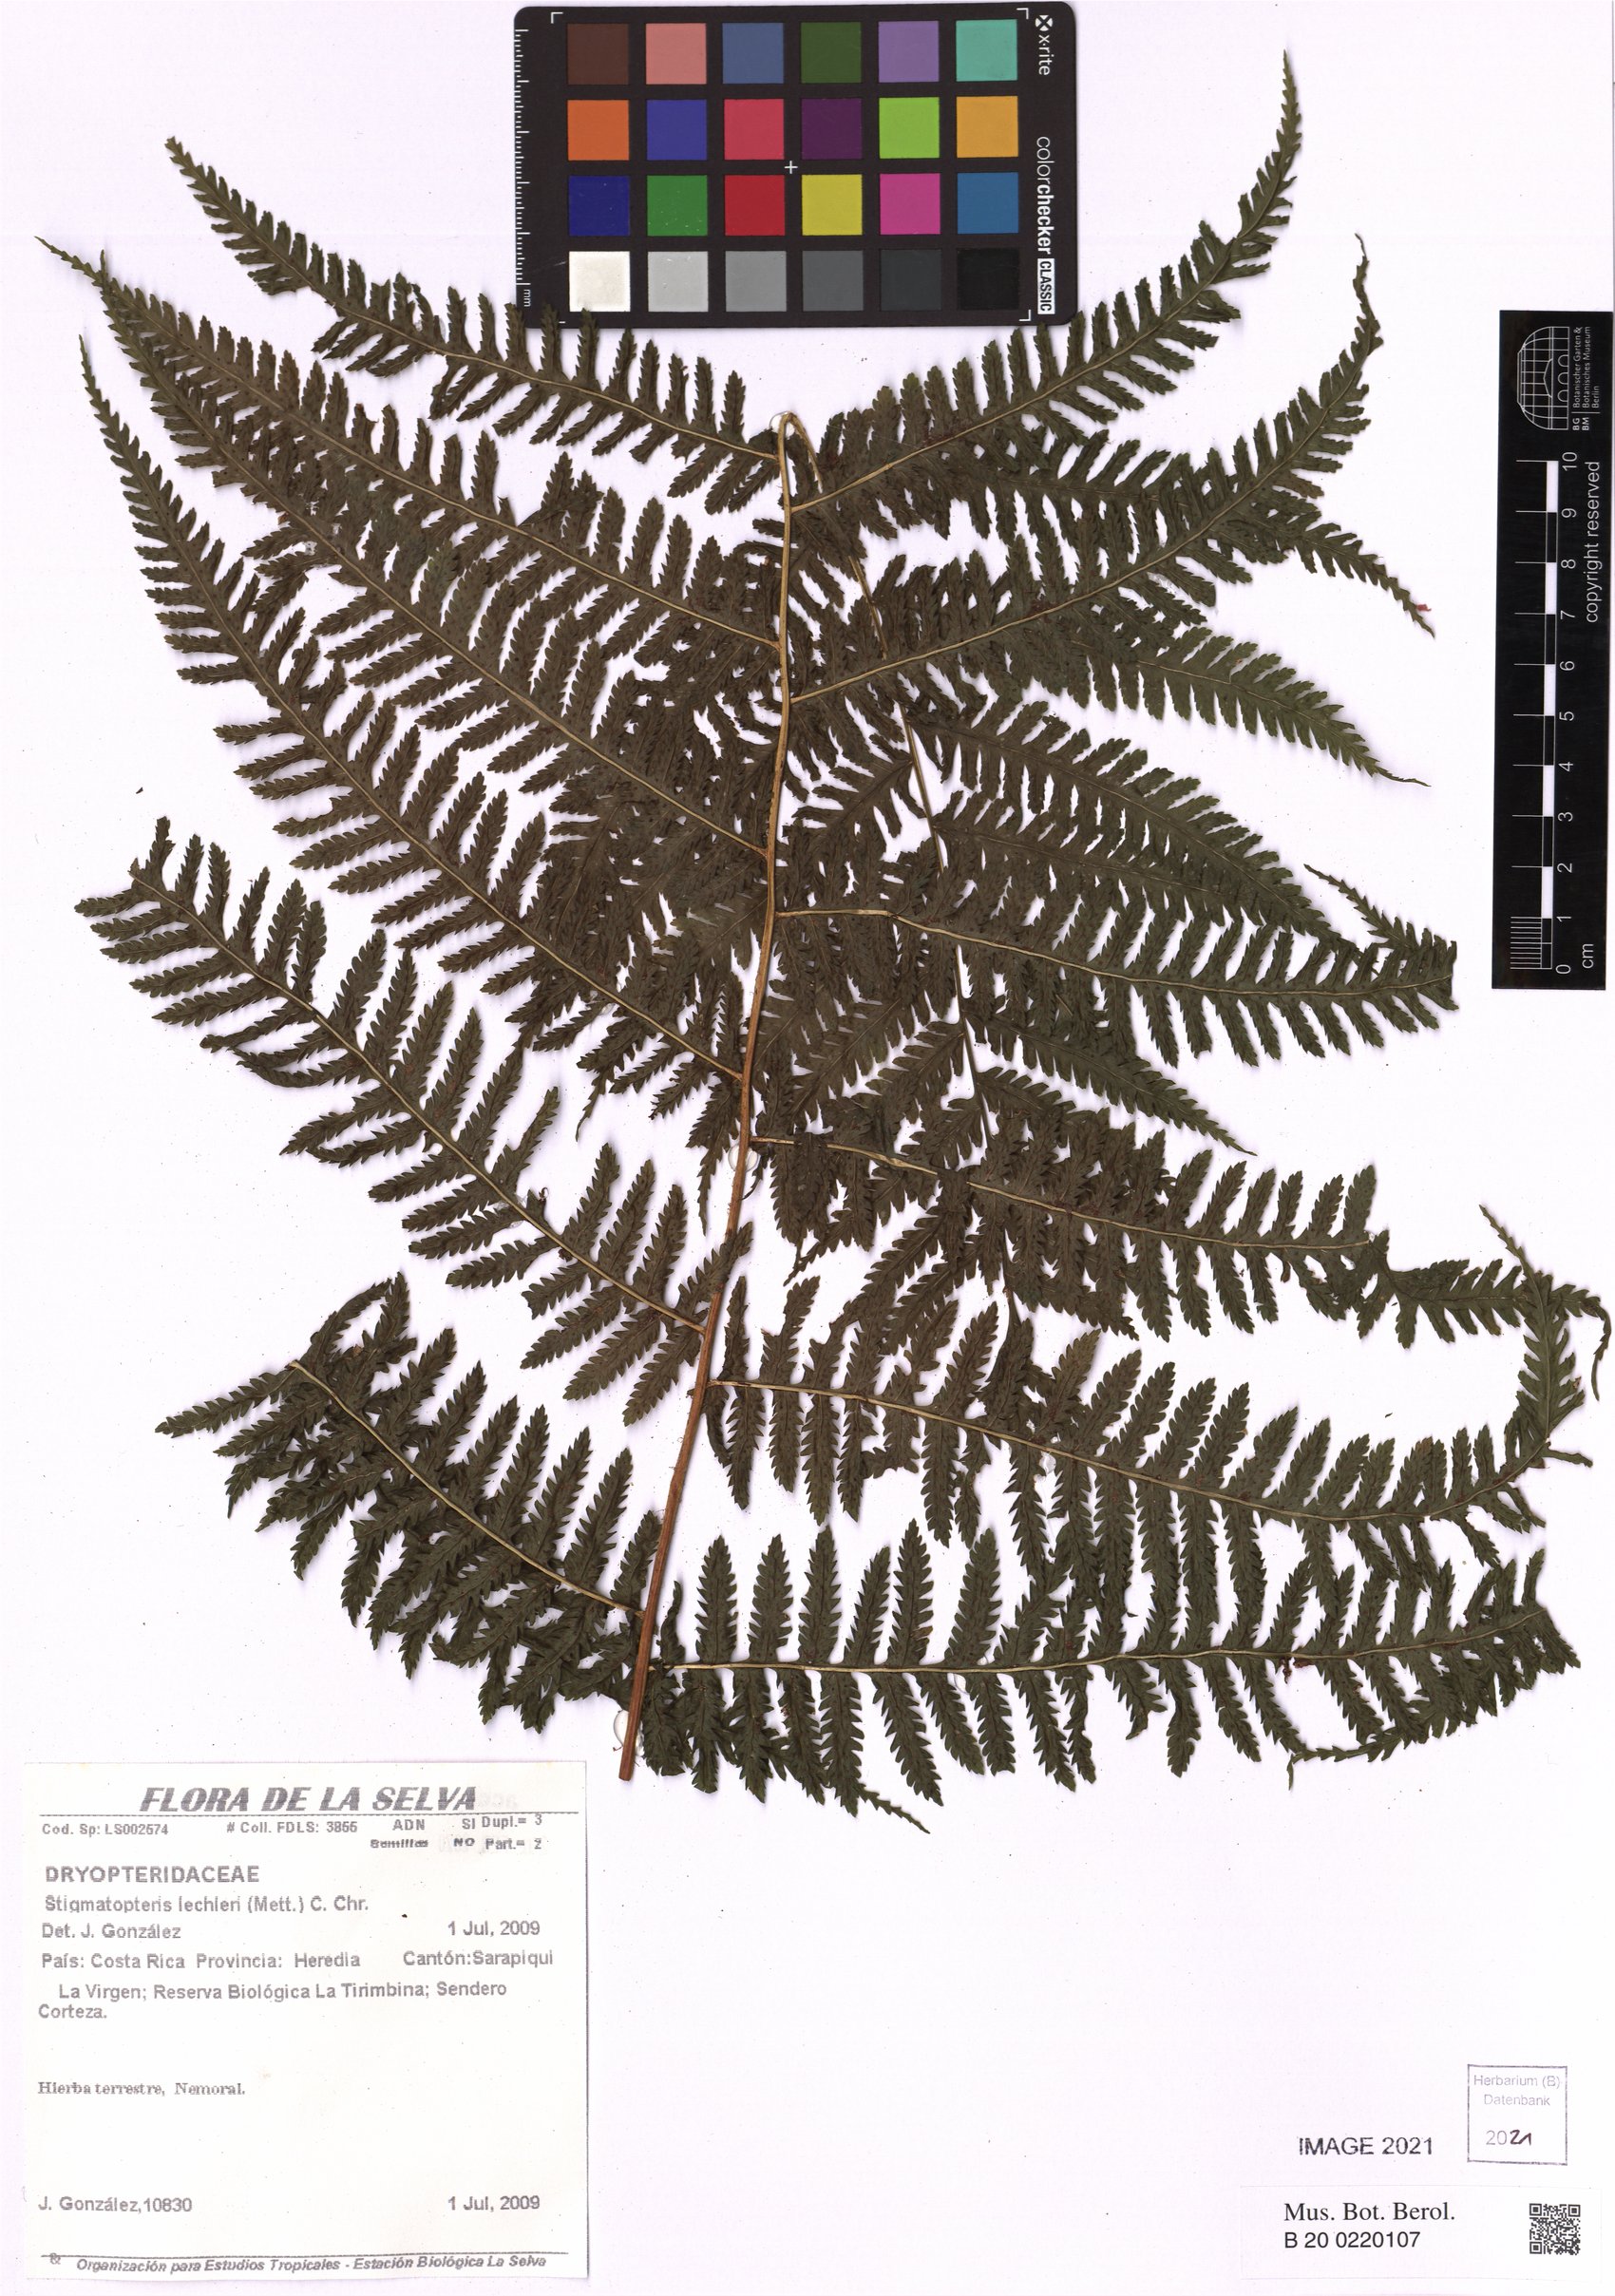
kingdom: Plantae
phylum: Tracheophyta
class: Polypodiopsida
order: Polypodiales
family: Dryopteridaceae
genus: Stigmatopteris
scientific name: Stigmatopteris lechleri
